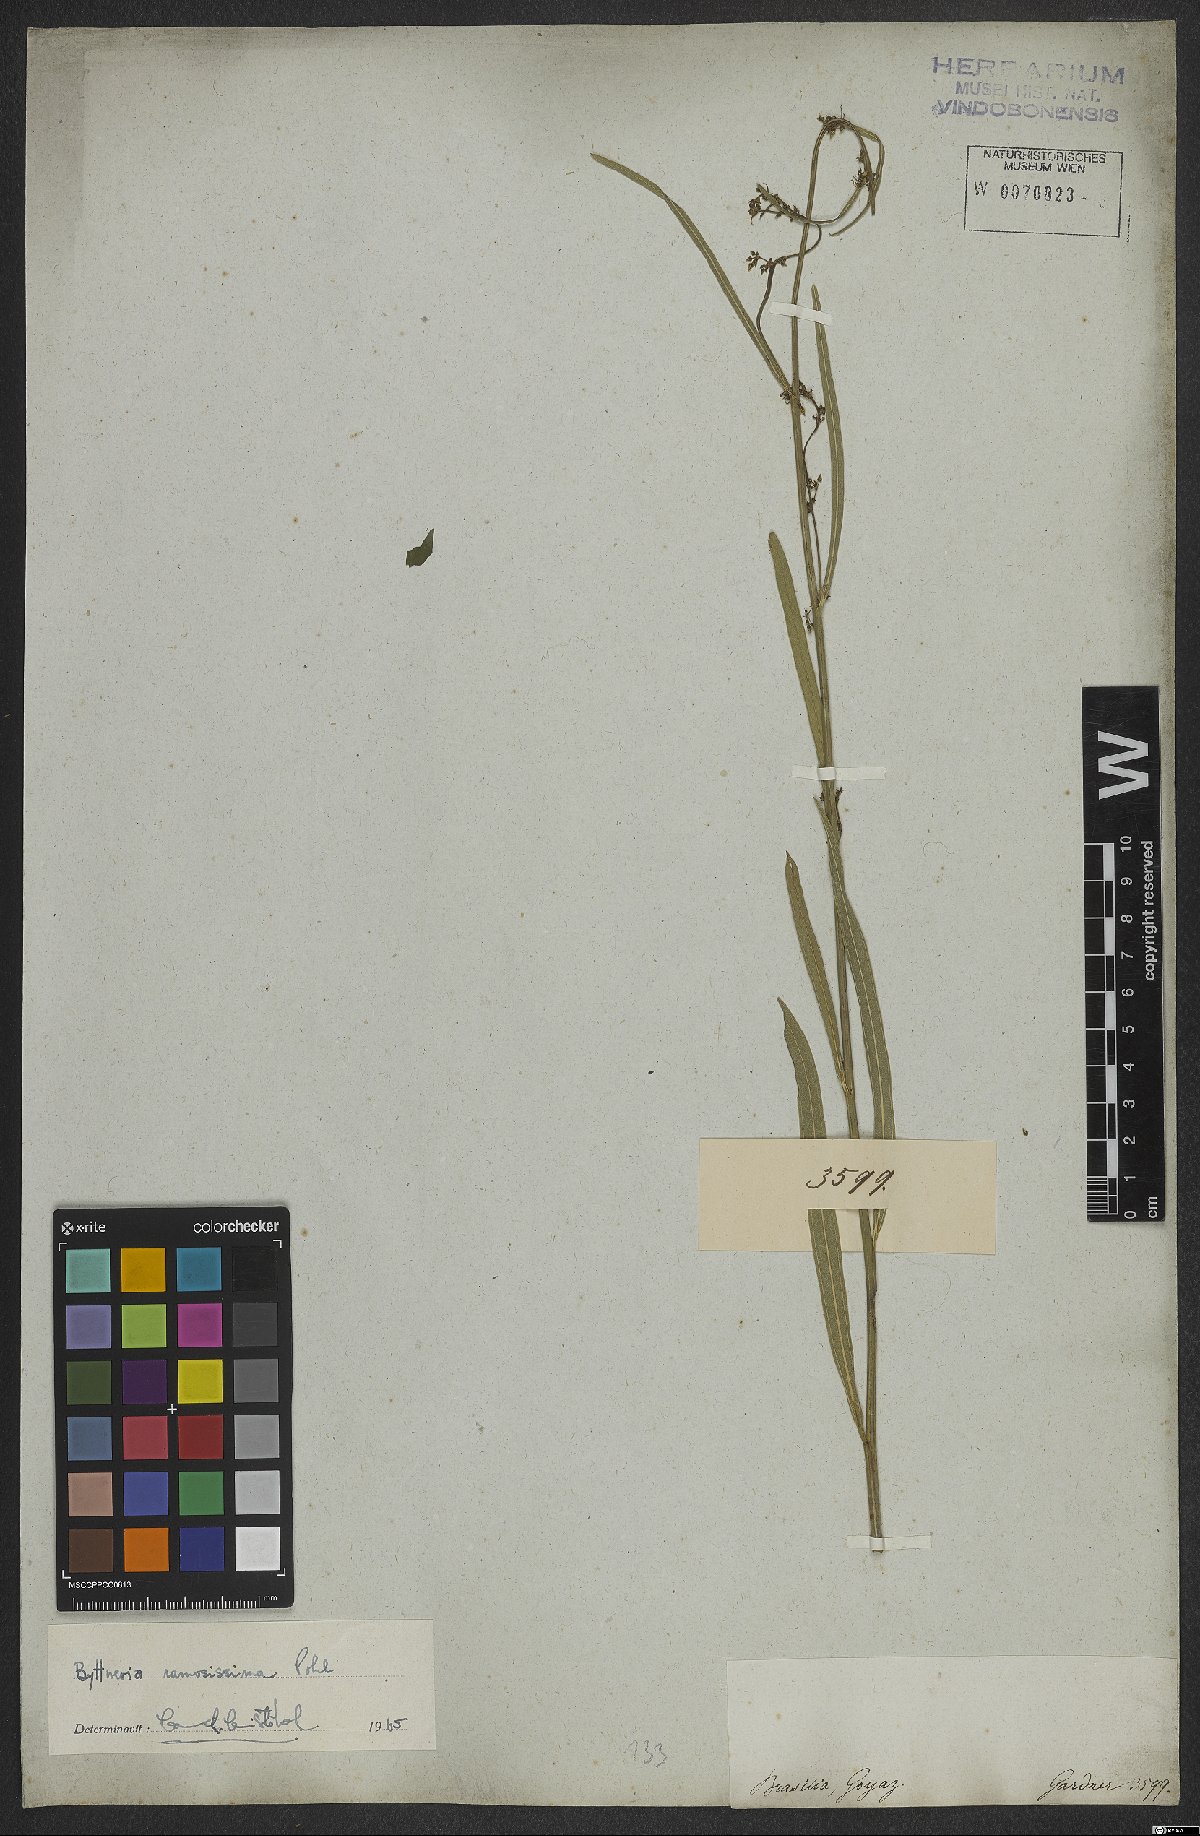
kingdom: Plantae
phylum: Tracheophyta
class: Magnoliopsida
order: Malvales
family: Malvaceae
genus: Byttneria
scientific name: Byttneria ramosissima
